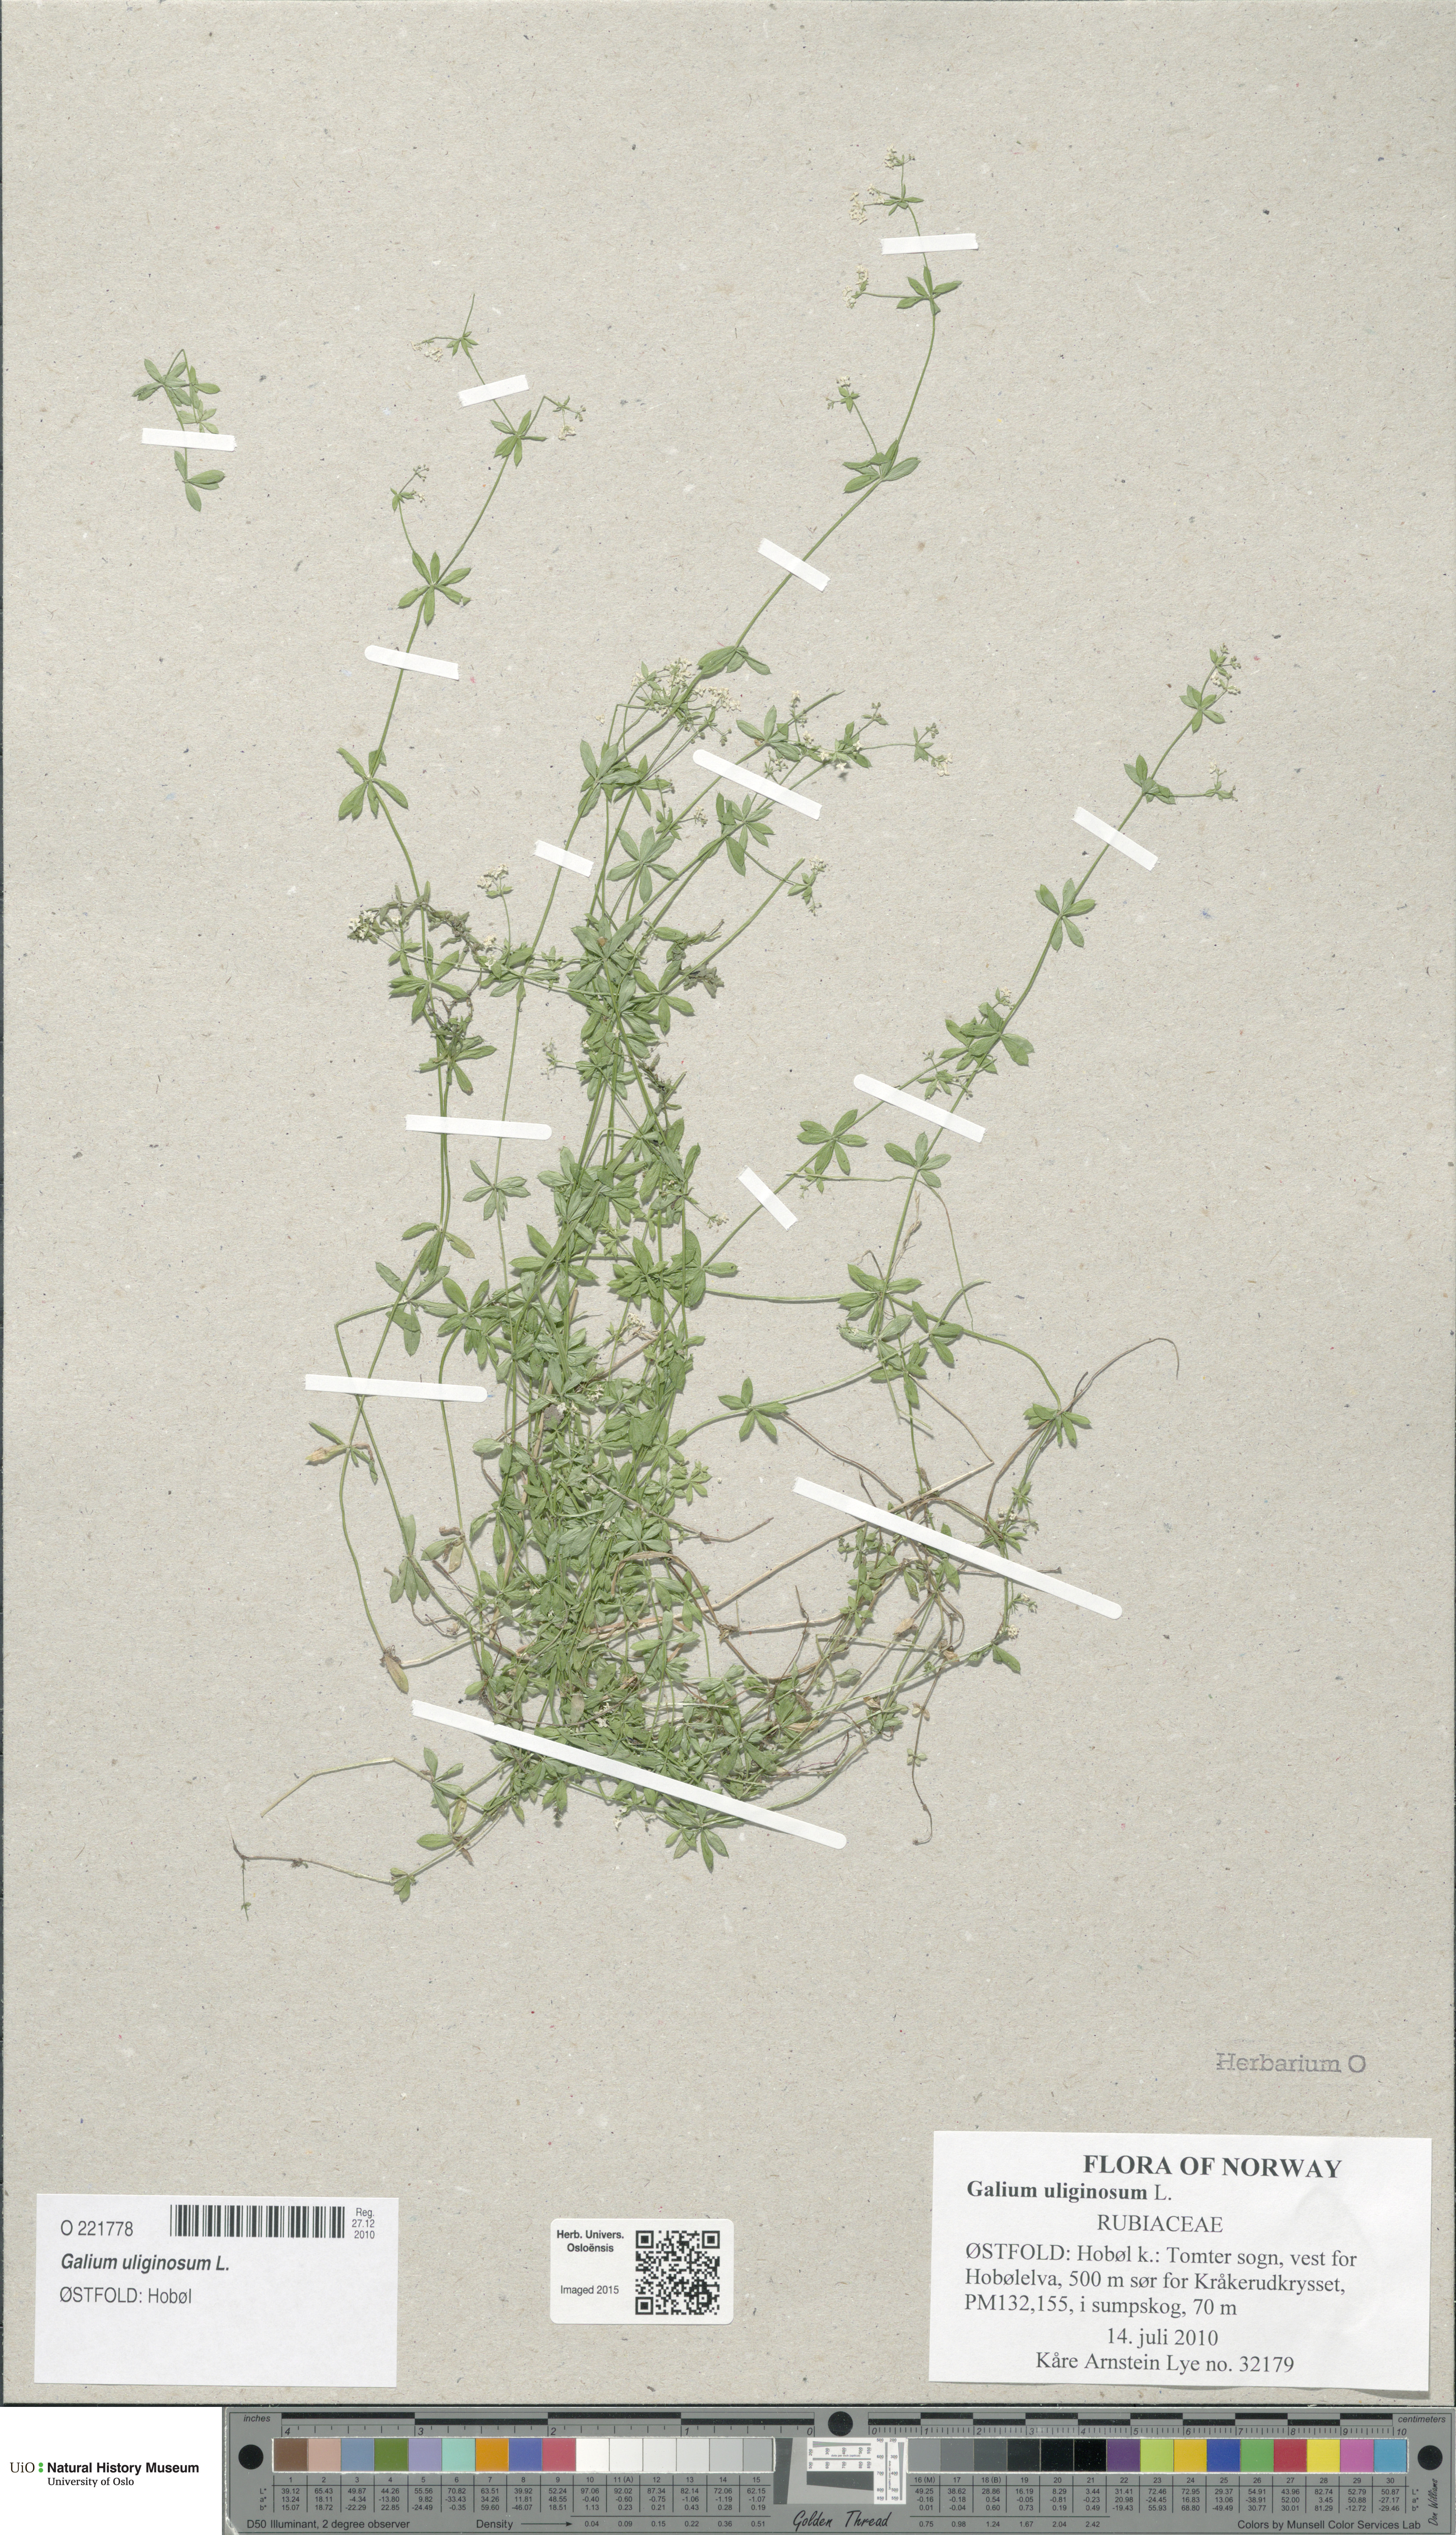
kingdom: Plantae
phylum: Tracheophyta
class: Magnoliopsida
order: Gentianales
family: Rubiaceae
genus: Galium
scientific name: Galium uliginosum
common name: Fen bedstraw
